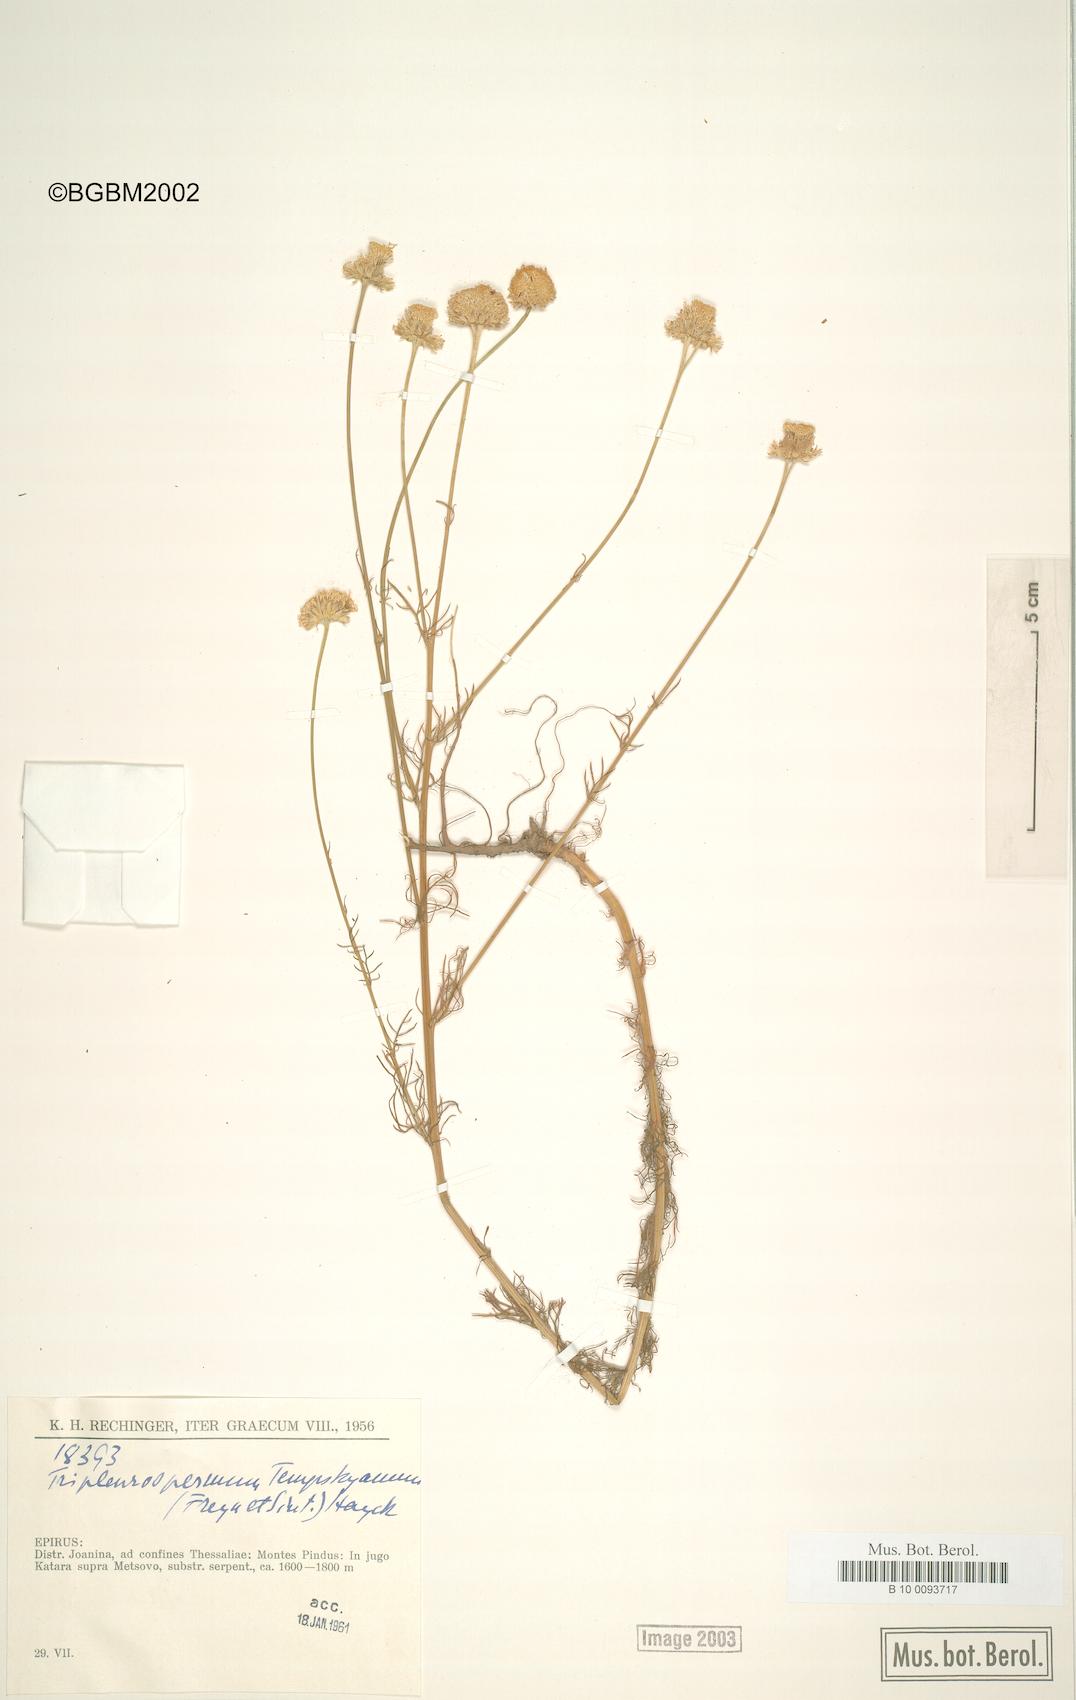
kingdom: Plantae
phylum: Tracheophyta
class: Magnoliopsida
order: Asterales
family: Asteraceae
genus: Tripleurospermum
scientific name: Tripleurospermum tempskyanum
